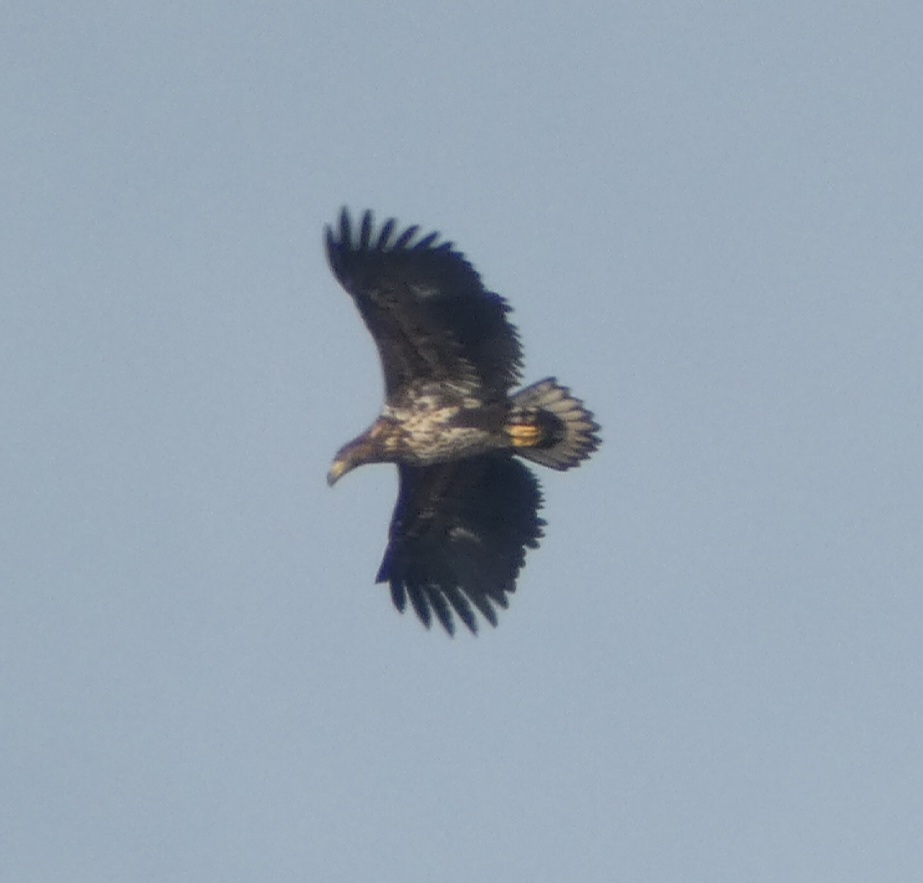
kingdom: Animalia
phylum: Chordata
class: Aves
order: Accipitriformes
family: Accipitridae
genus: Haliaeetus
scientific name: Haliaeetus albicilla
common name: Havørn
